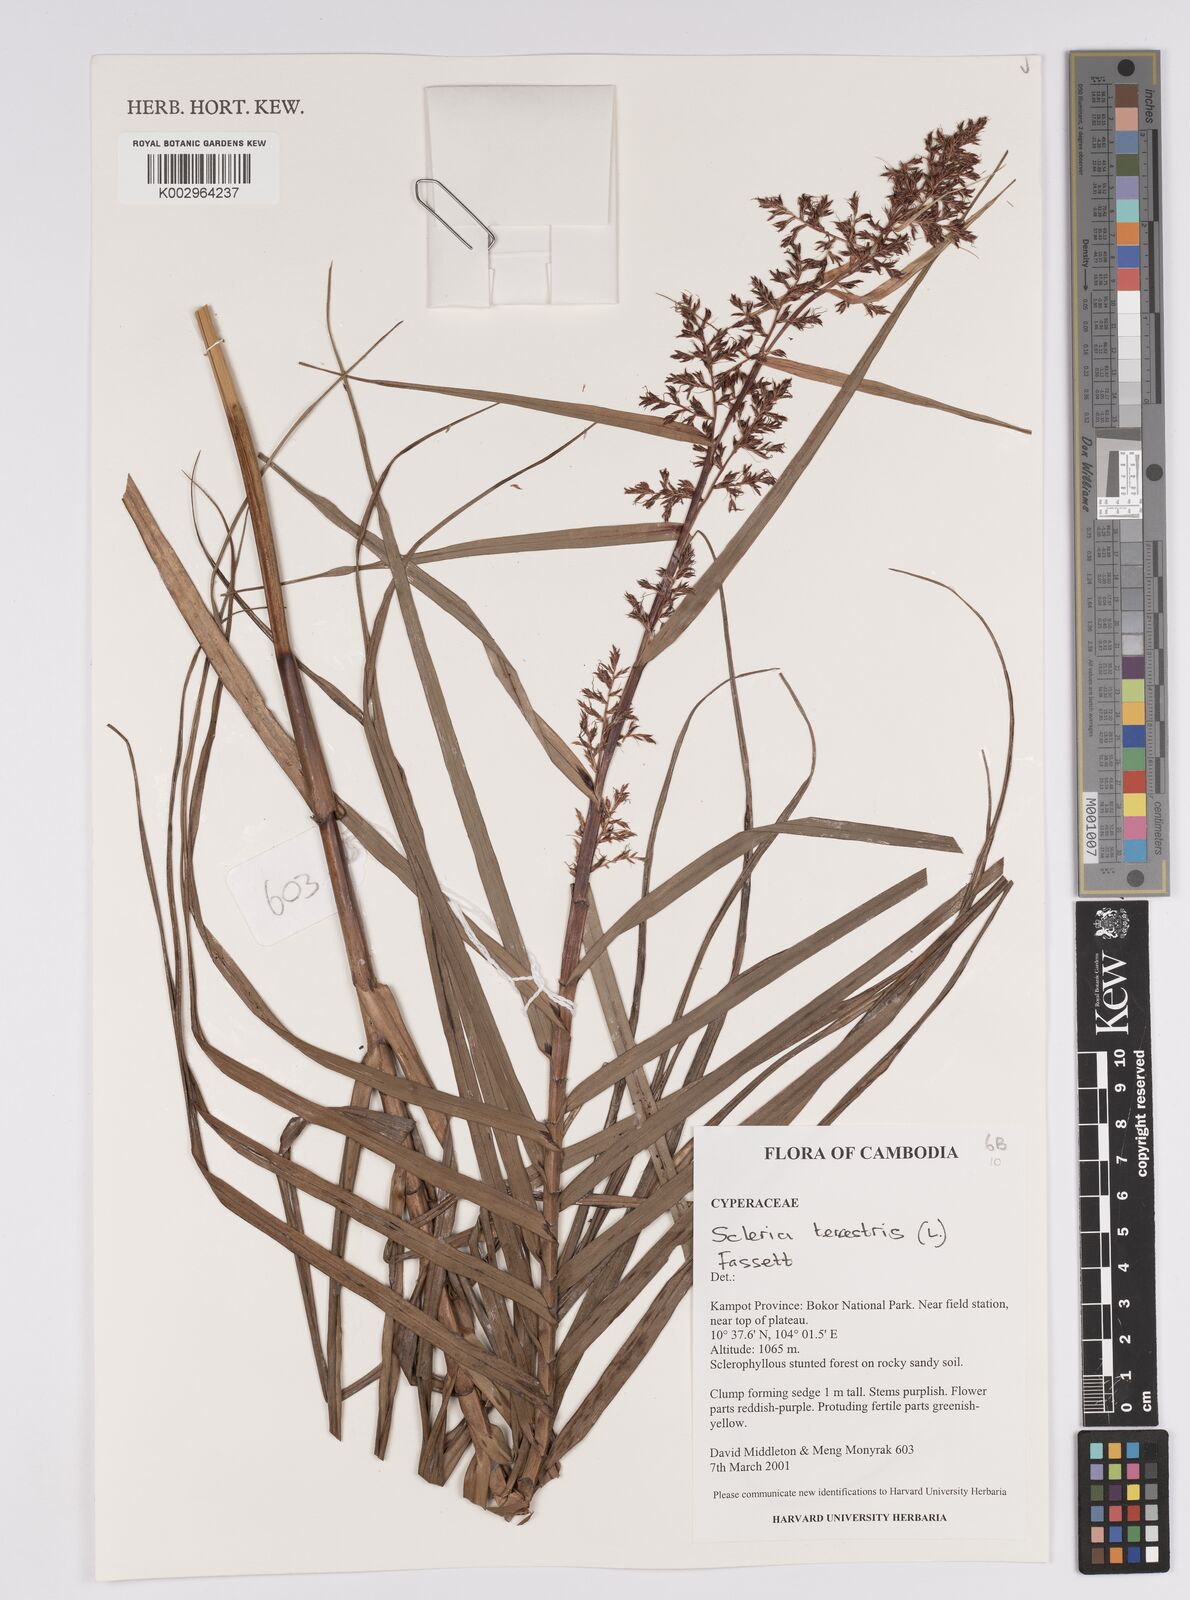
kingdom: Plantae
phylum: Tracheophyta
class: Liliopsida
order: Poales
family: Cyperaceae
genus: Scleria
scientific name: Scleria terrestris
